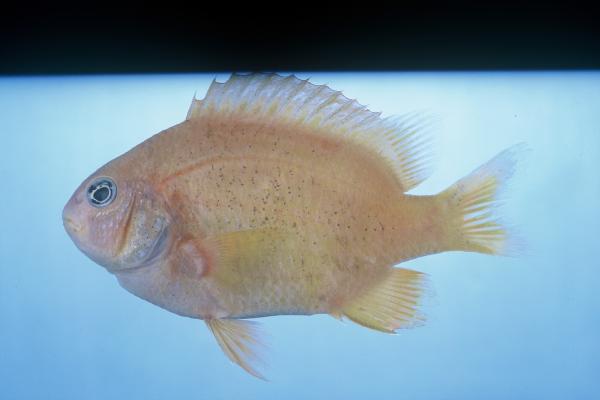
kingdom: Animalia
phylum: Chordata
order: Perciformes
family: Pomacentridae
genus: Plectroglyphidodon
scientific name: Plectroglyphidodon leucozonus
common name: White-band damsel
